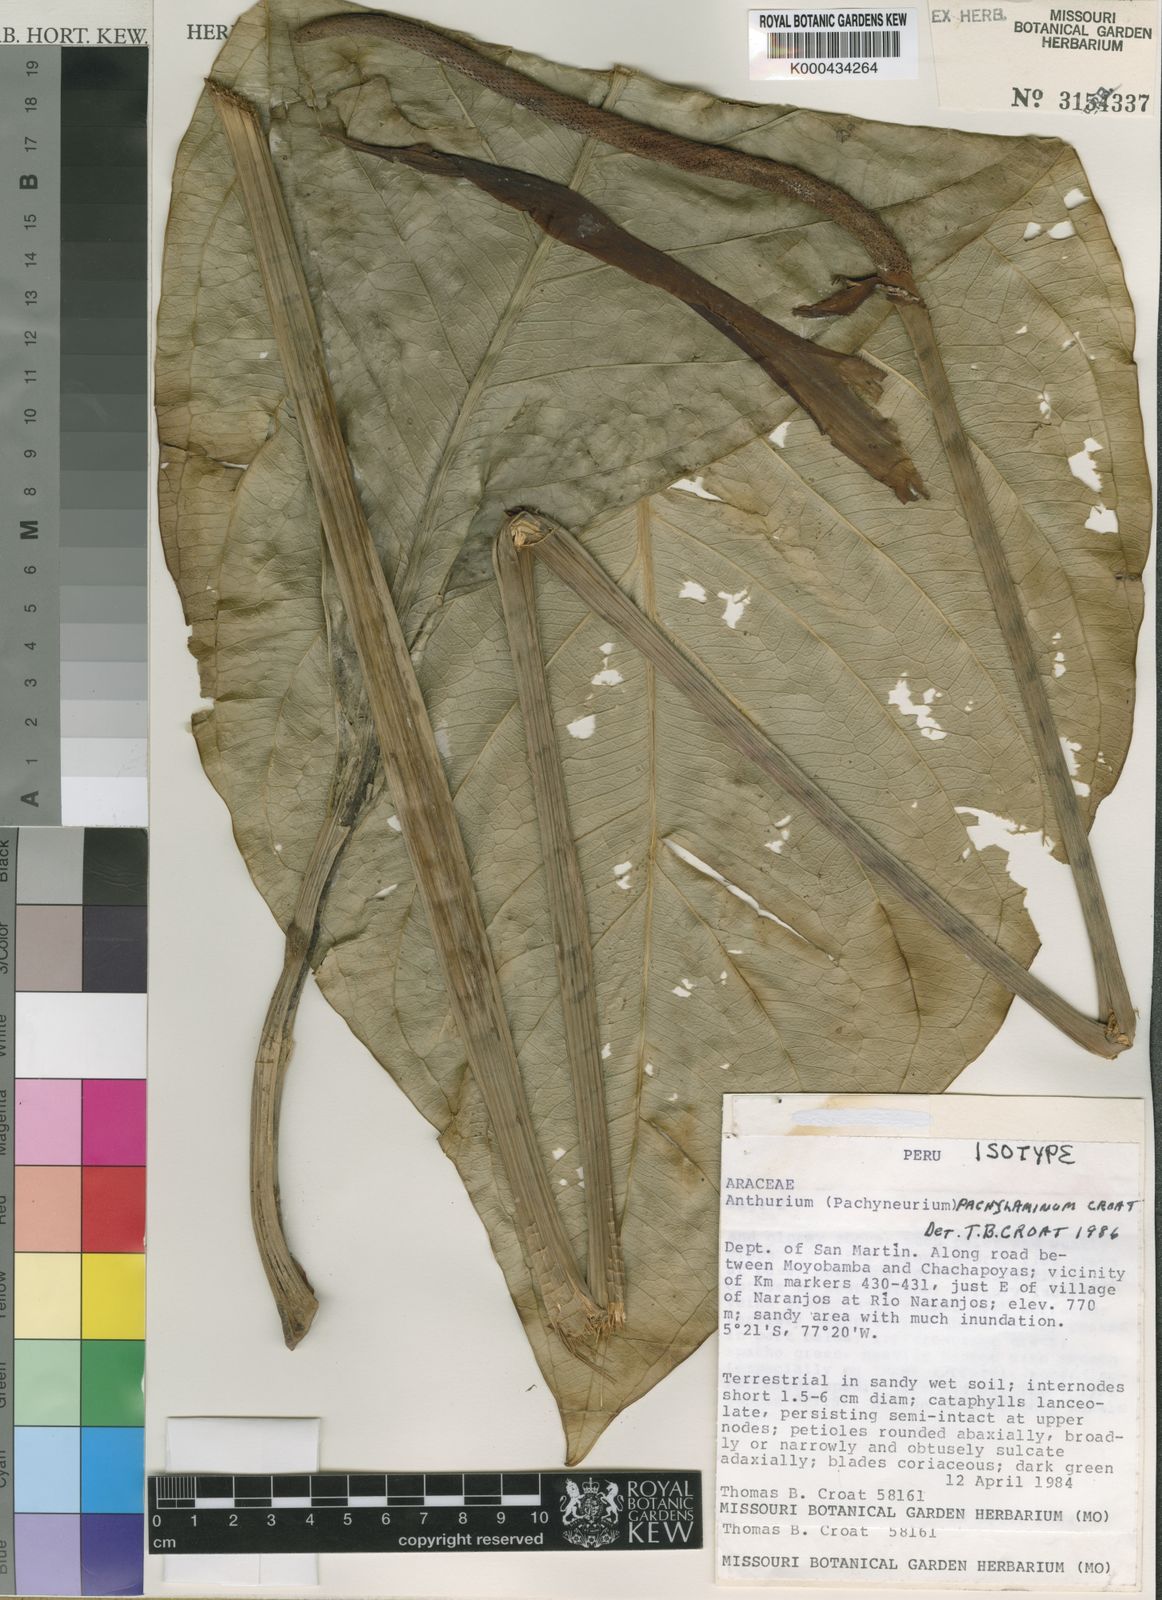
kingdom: Plantae
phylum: Tracheophyta
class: Liliopsida
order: Alismatales
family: Araceae
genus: Anthurium
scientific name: Anthurium pachylaminum
